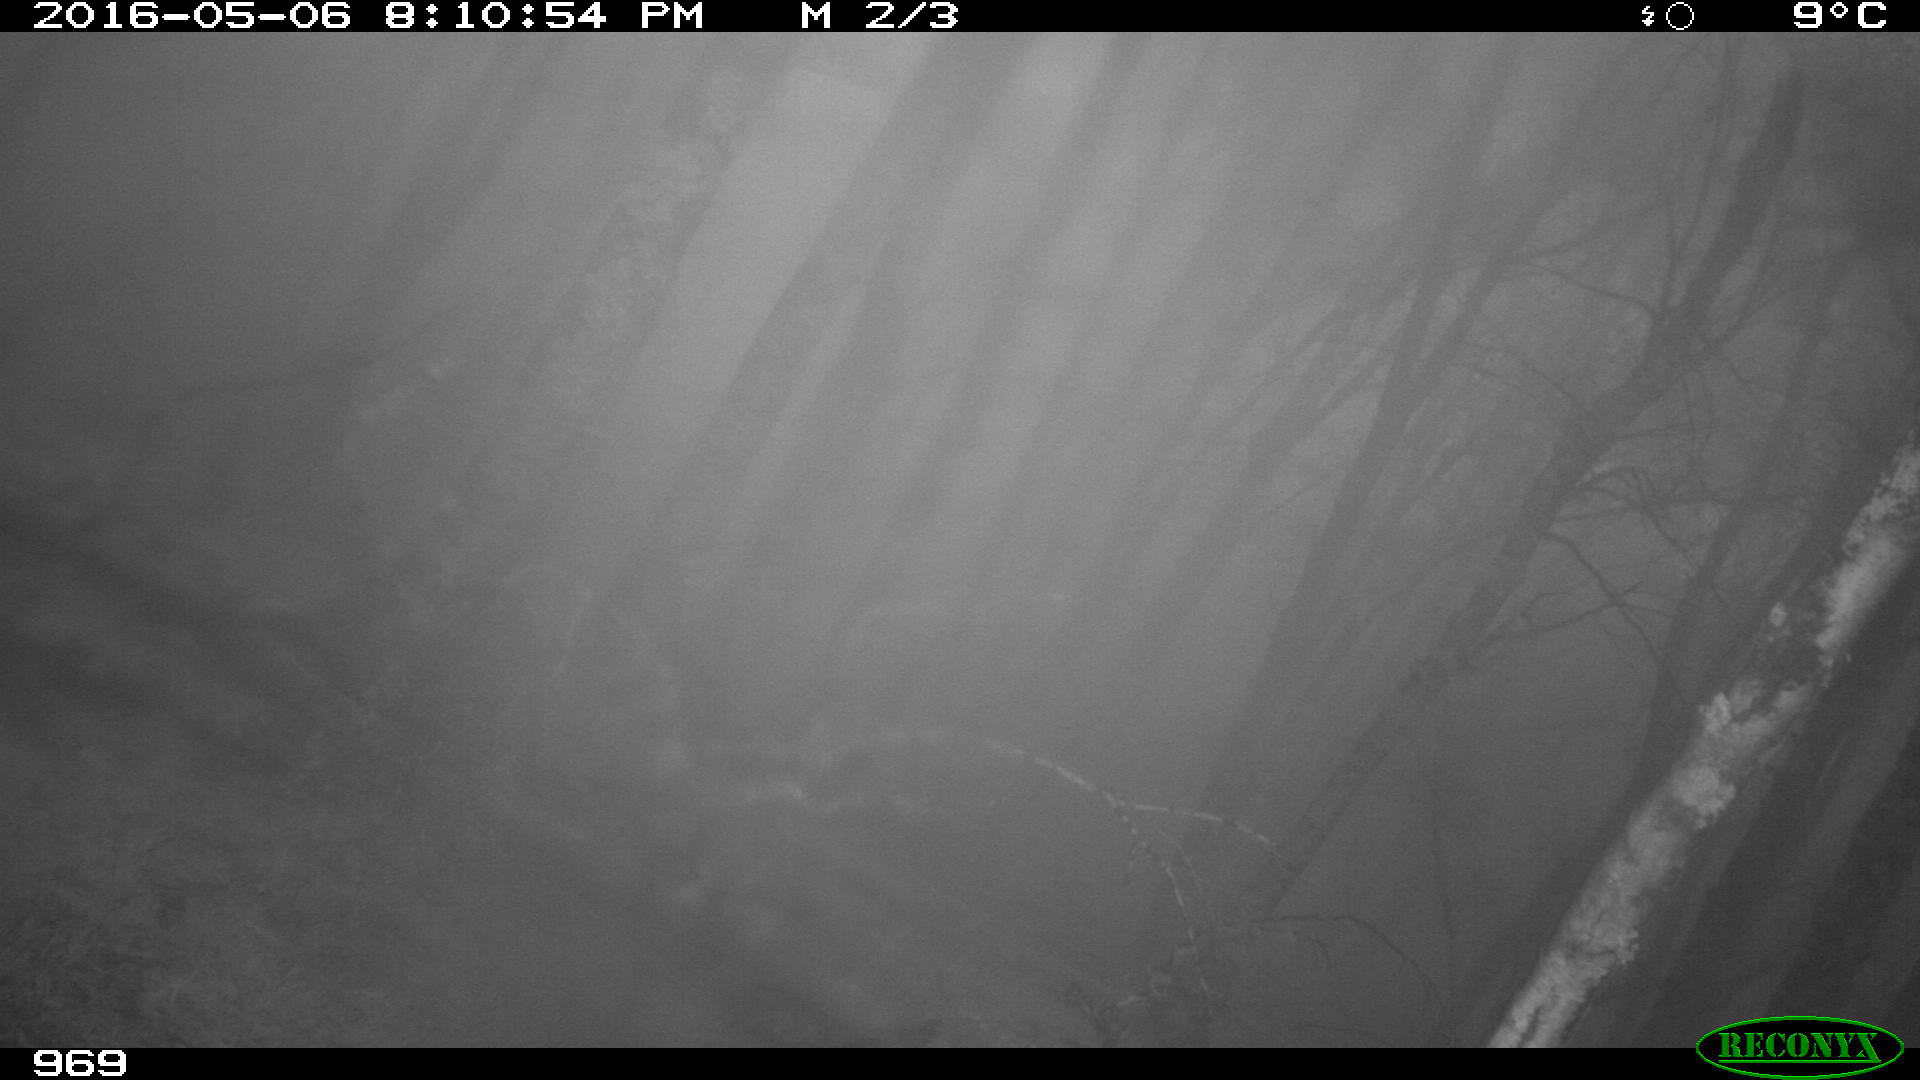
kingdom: Animalia
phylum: Chordata
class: Mammalia
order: Perissodactyla
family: Equidae
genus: Equus
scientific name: Equus caballus
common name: Horse
